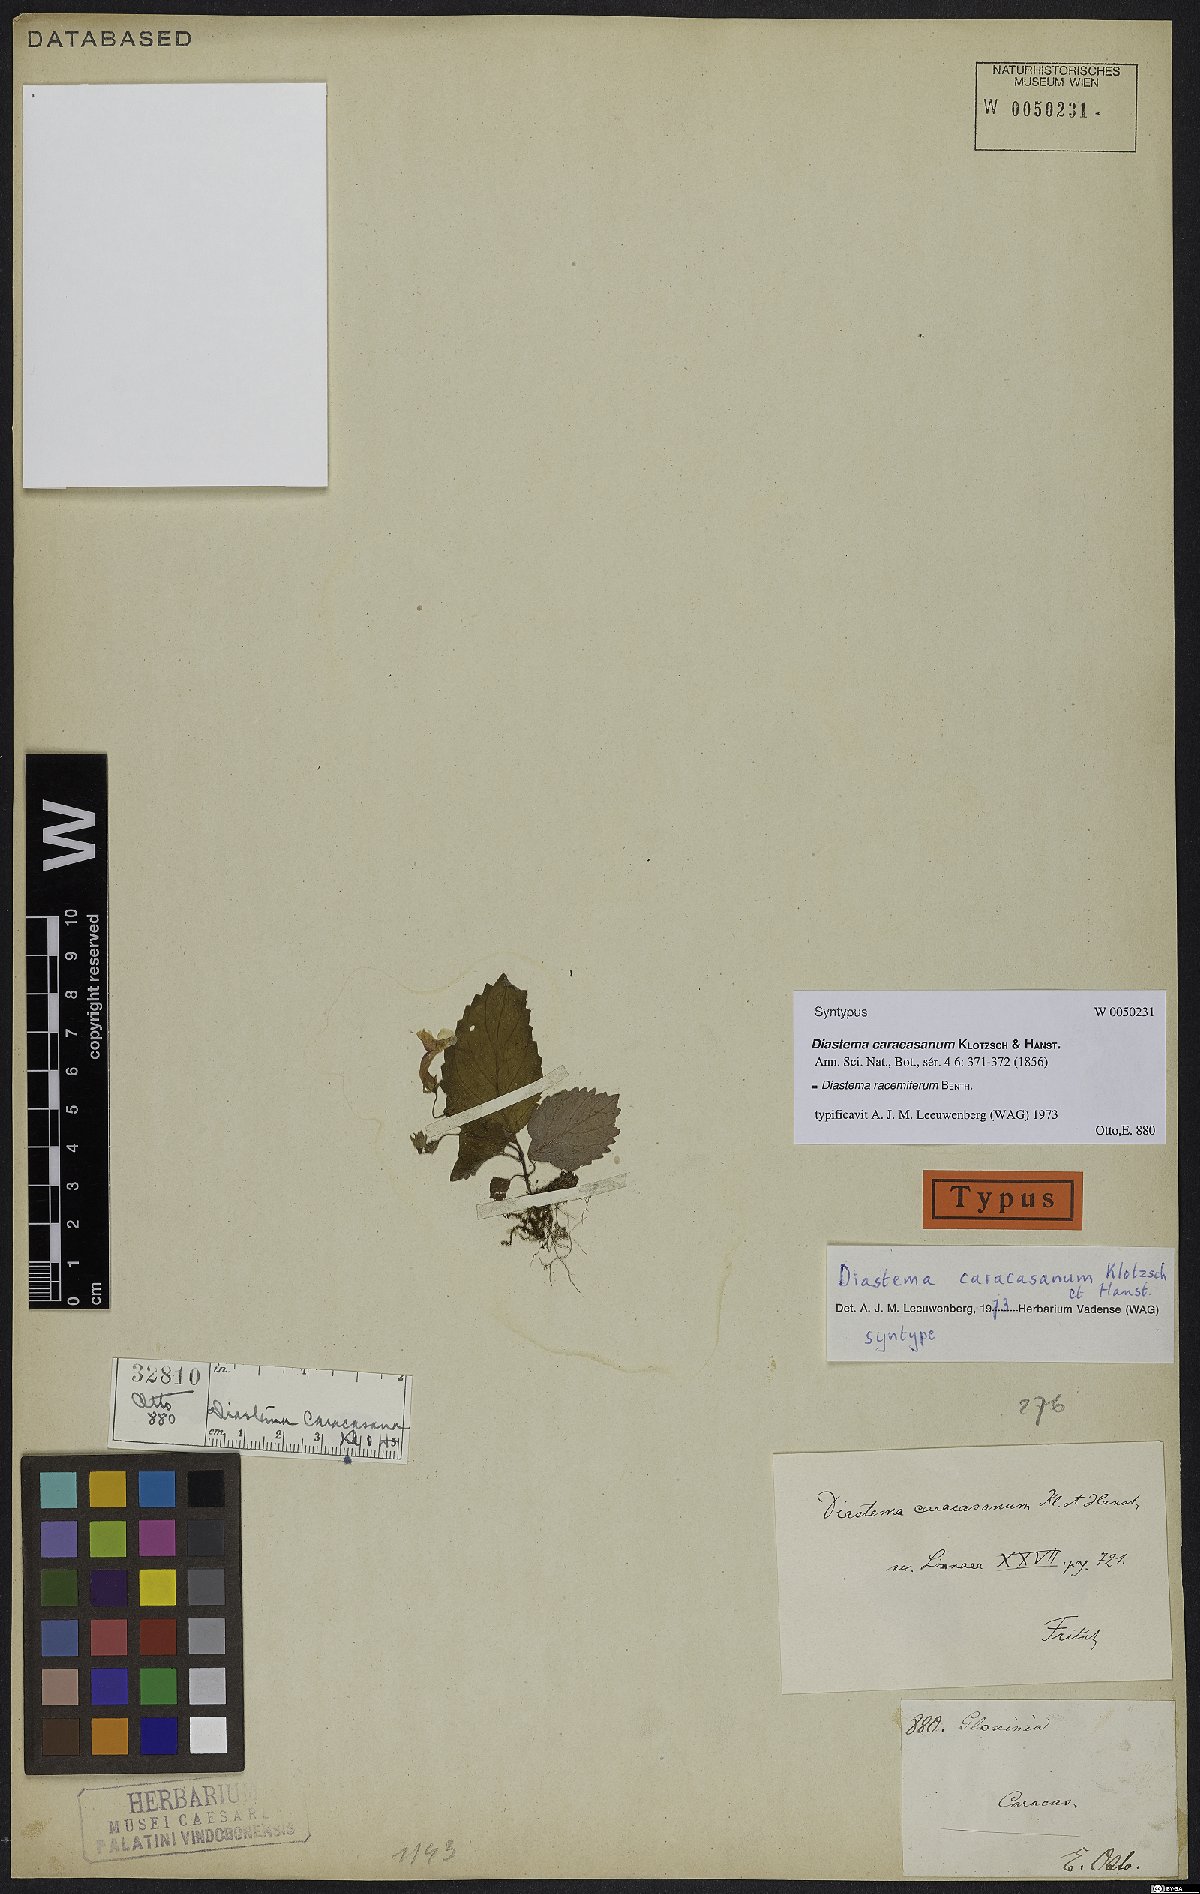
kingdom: Plantae
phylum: Tracheophyta
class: Magnoliopsida
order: Lamiales
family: Gesneriaceae
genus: Diastema
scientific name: Diastema racemiferum
